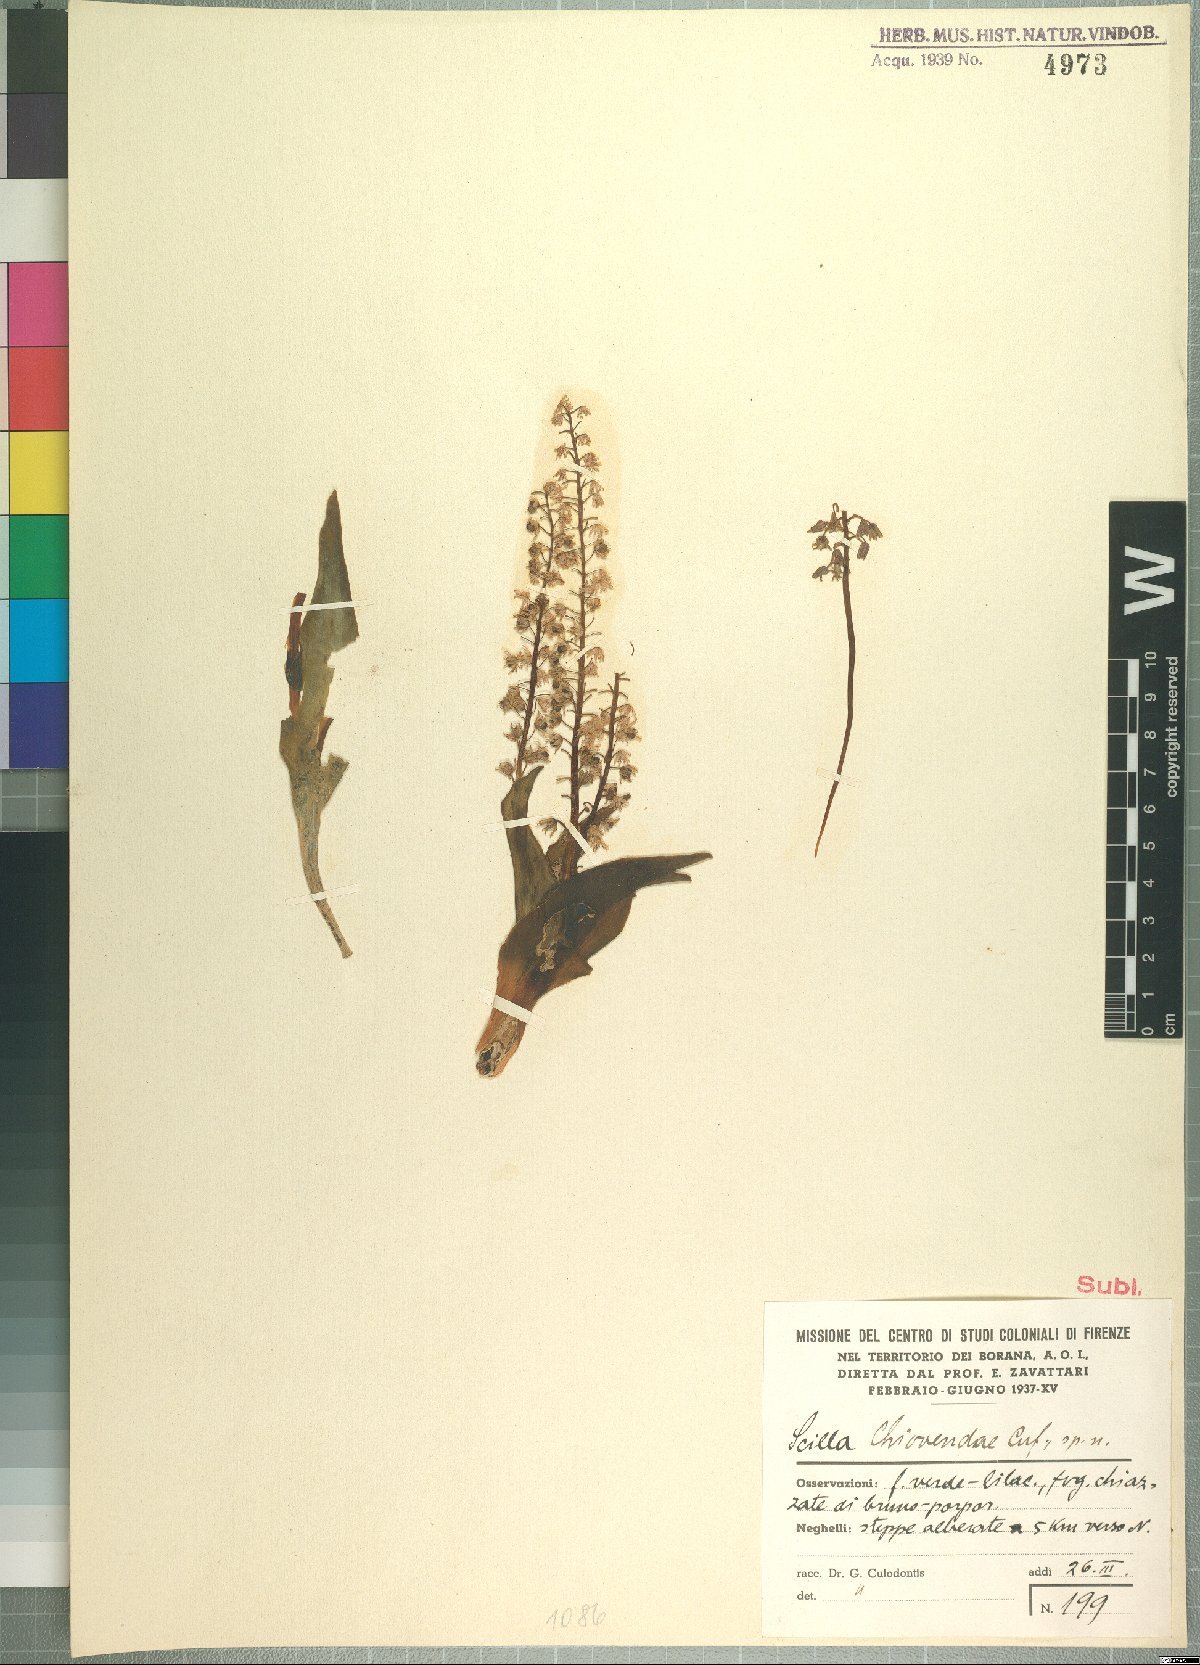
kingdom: Plantae
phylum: Tracheophyta
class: Liliopsida
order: Asparagales
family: Asparagaceae
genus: Ledebouria
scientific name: Ledebouria revoluta
